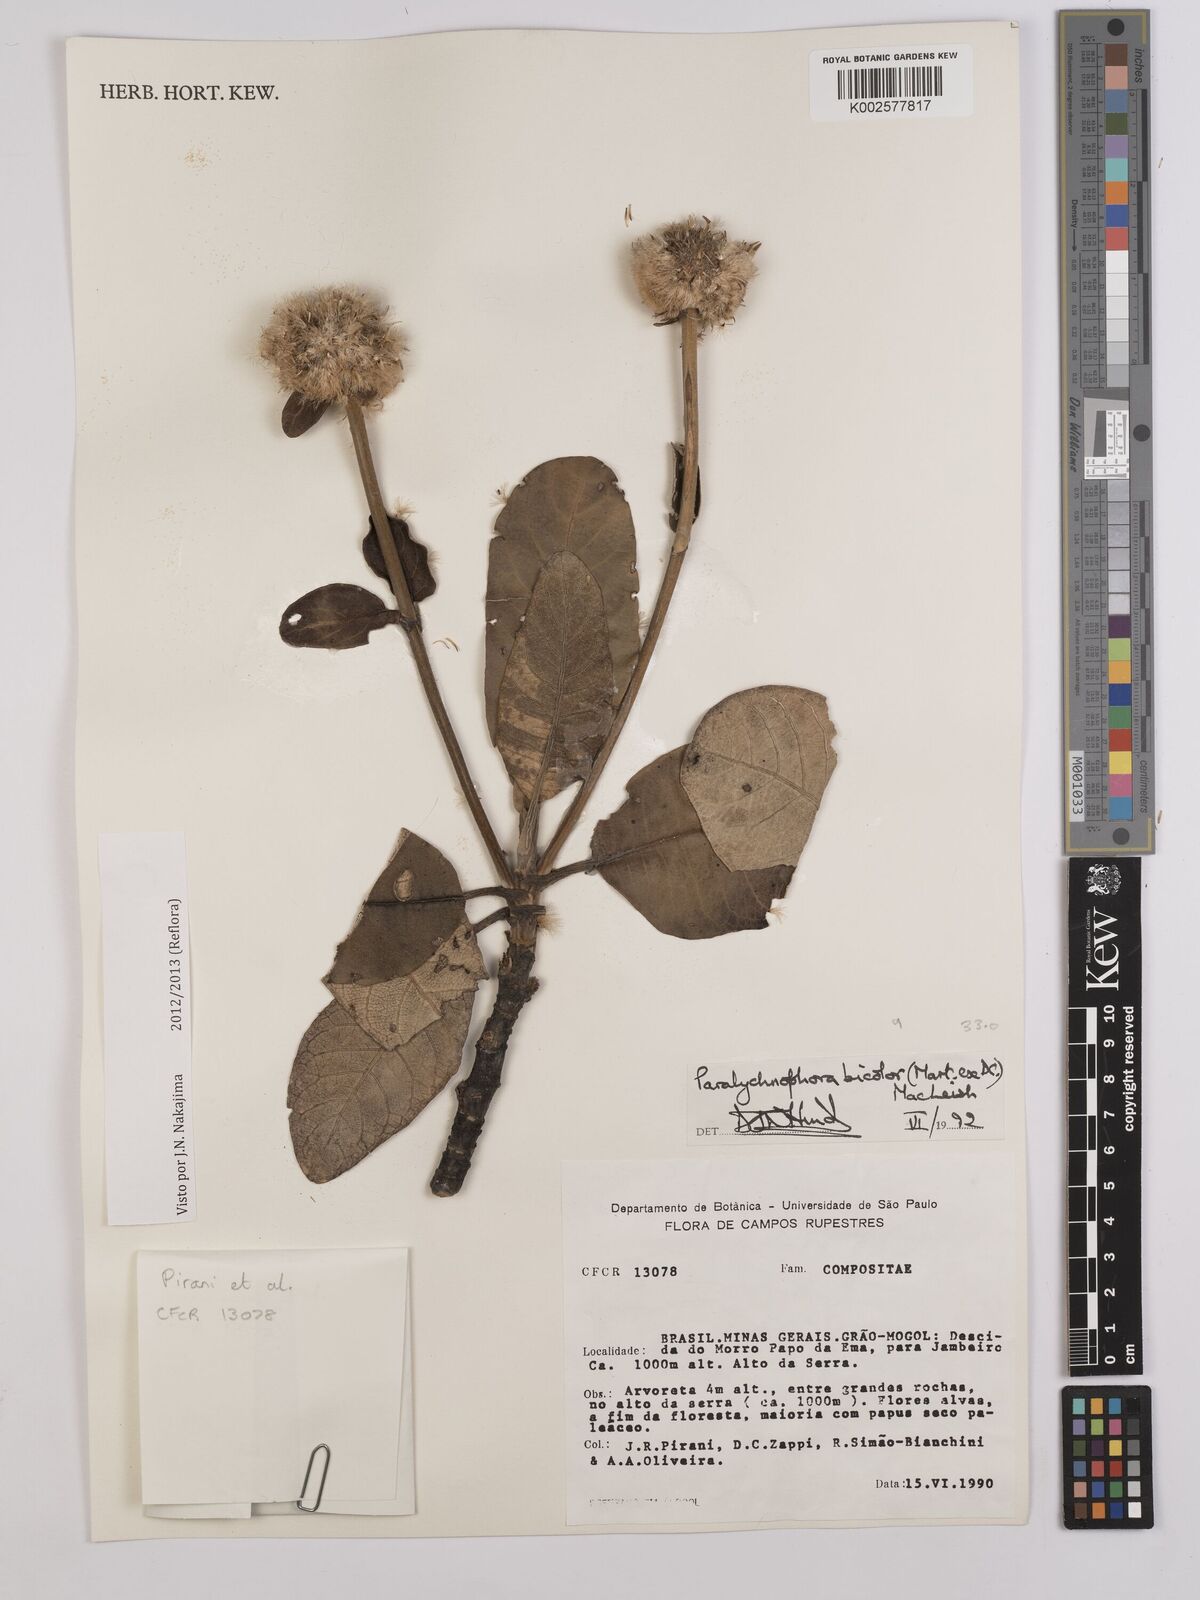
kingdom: Plantae
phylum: Tracheophyta
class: Magnoliopsida
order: Asterales
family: Asteraceae
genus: Paralychnophora
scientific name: Paralychnophora bicolor
